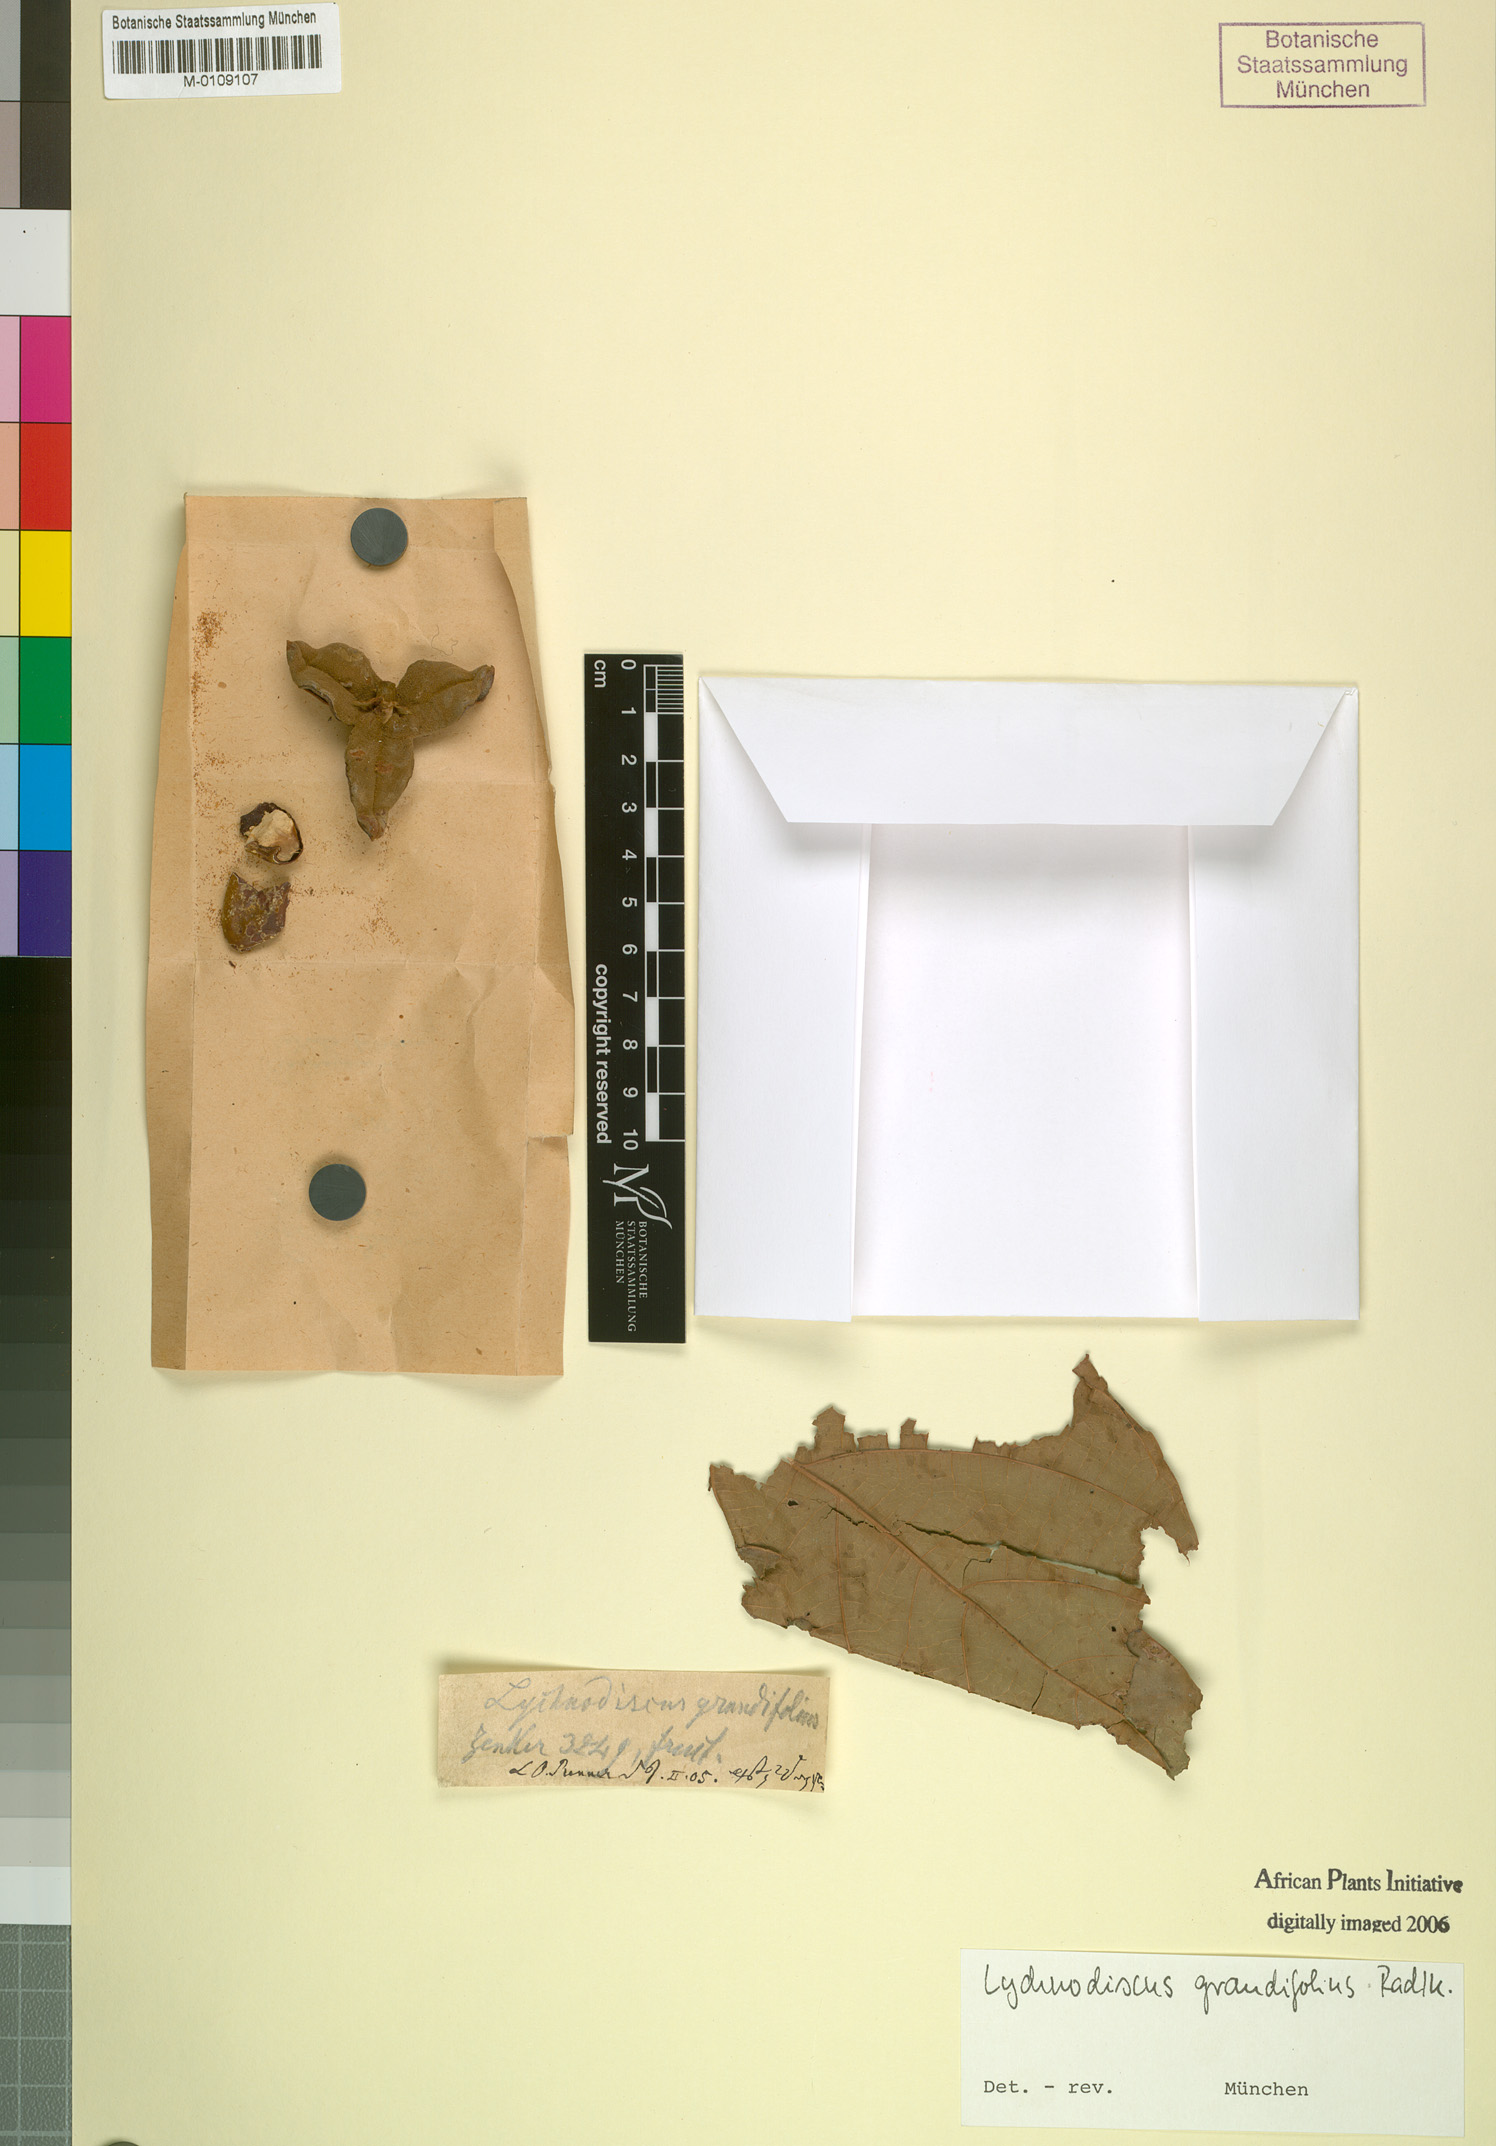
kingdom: Plantae
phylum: Tracheophyta
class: Magnoliopsida
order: Sapindales
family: Sapindaceae
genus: Lychnodiscus
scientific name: Lychnodiscus grandifolius
